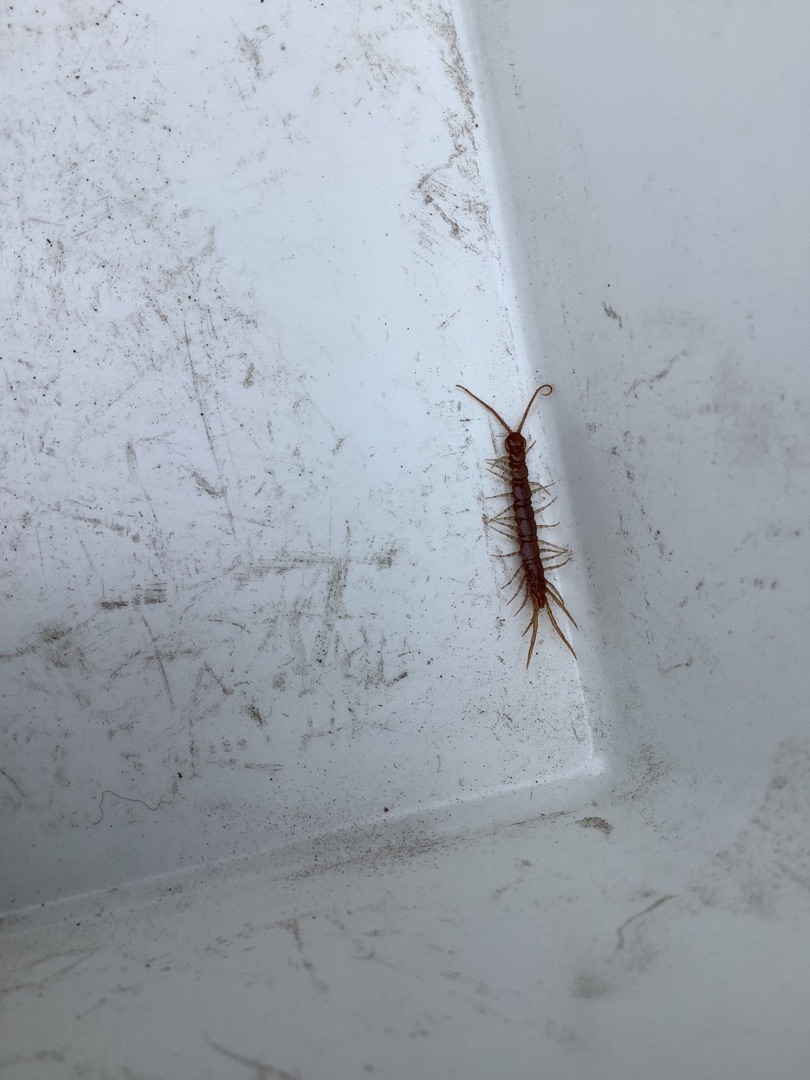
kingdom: Animalia
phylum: Arthropoda
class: Chilopoda
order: Lithobiomorpha
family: Lithobiidae
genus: Lithobius
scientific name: Lithobius forficatus
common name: Stenskolopender
